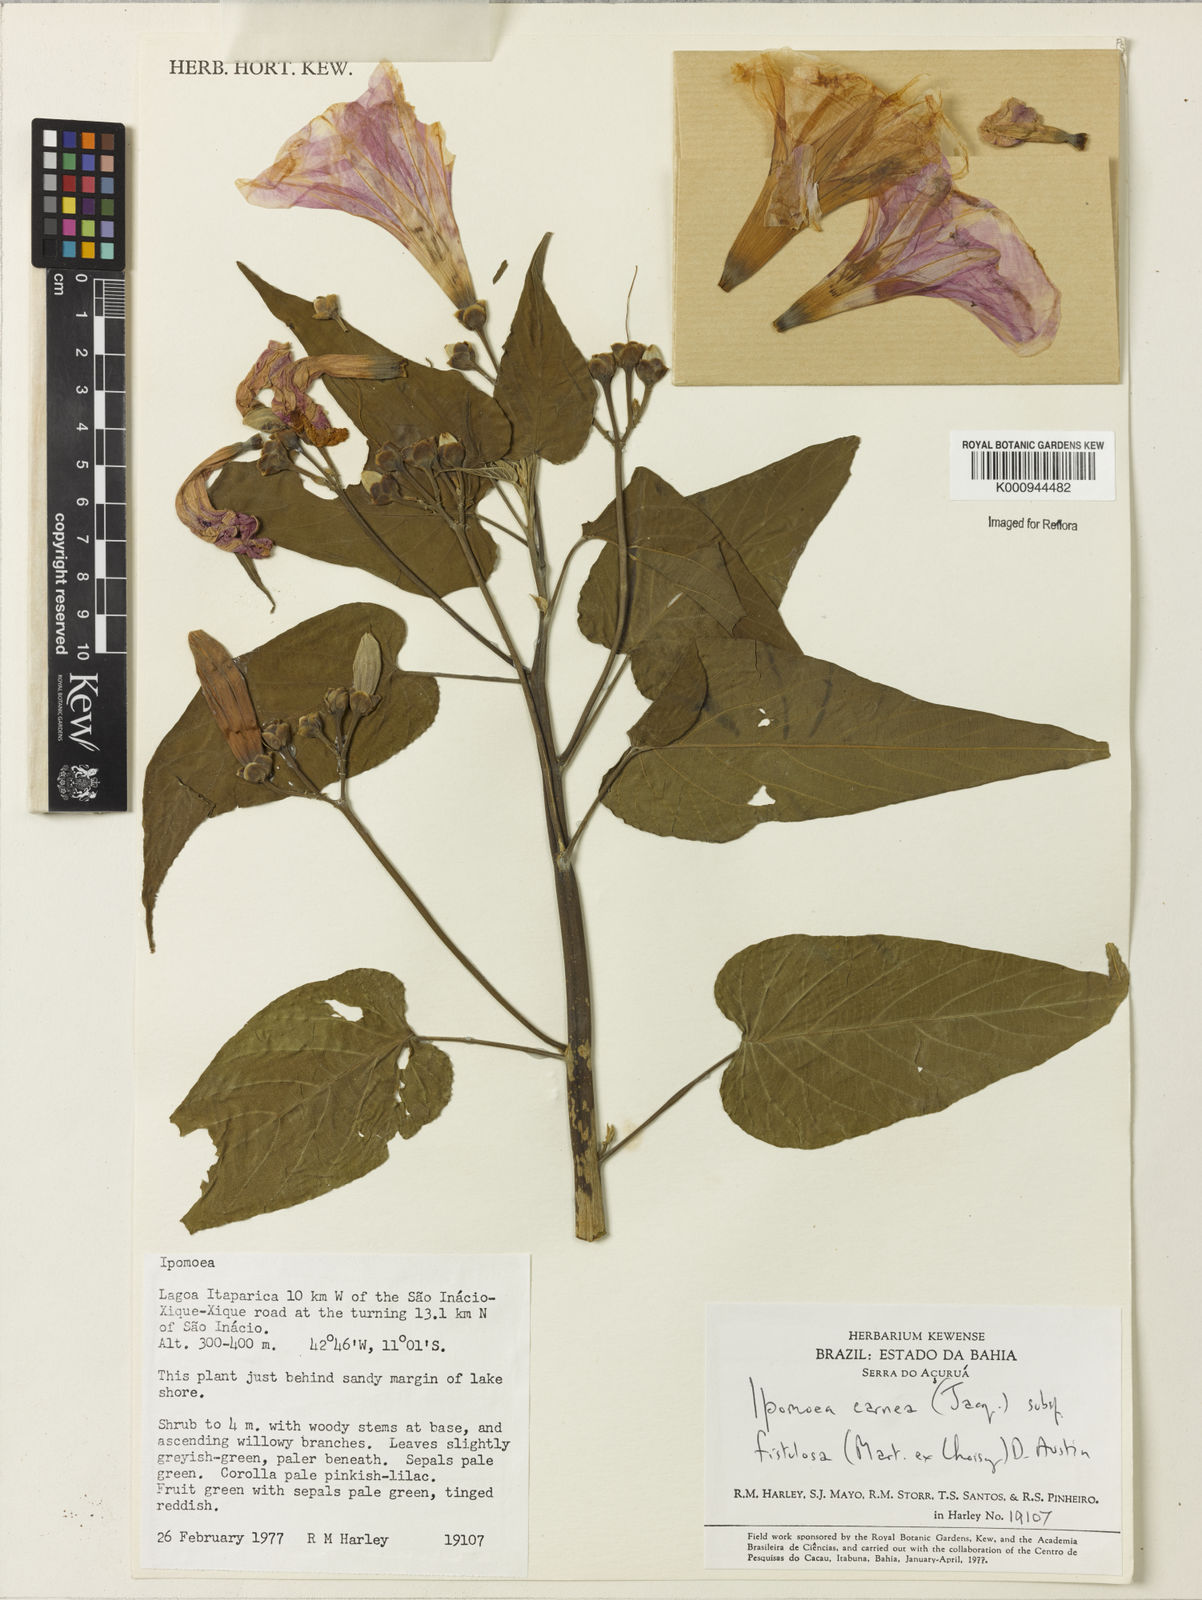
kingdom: Plantae
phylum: Tracheophyta
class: Magnoliopsida
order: Solanales
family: Convolvulaceae
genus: Ipomoea
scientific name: Ipomoea carnea
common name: Morning-glory
